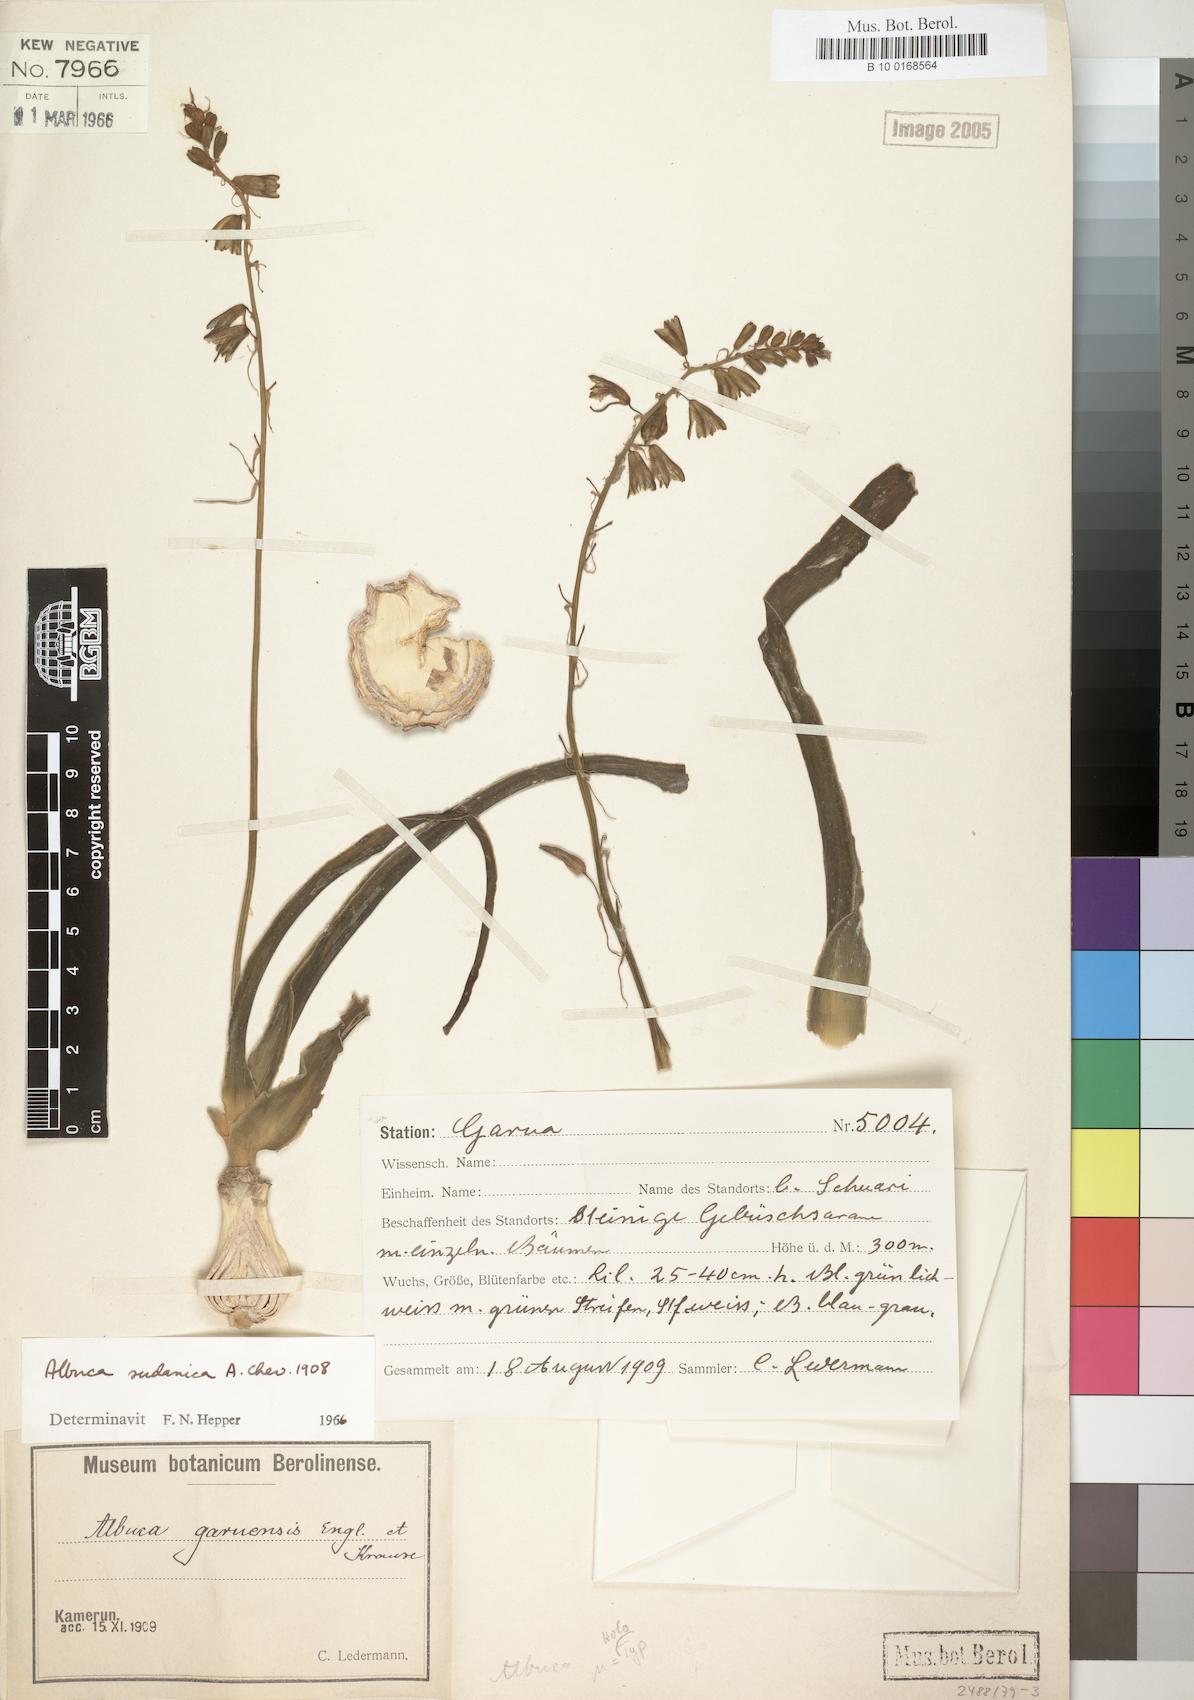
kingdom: Plantae
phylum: Tracheophyta
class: Liliopsida
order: Asparagales
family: Asparagaceae
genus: Albuca
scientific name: Albuca sudanica
